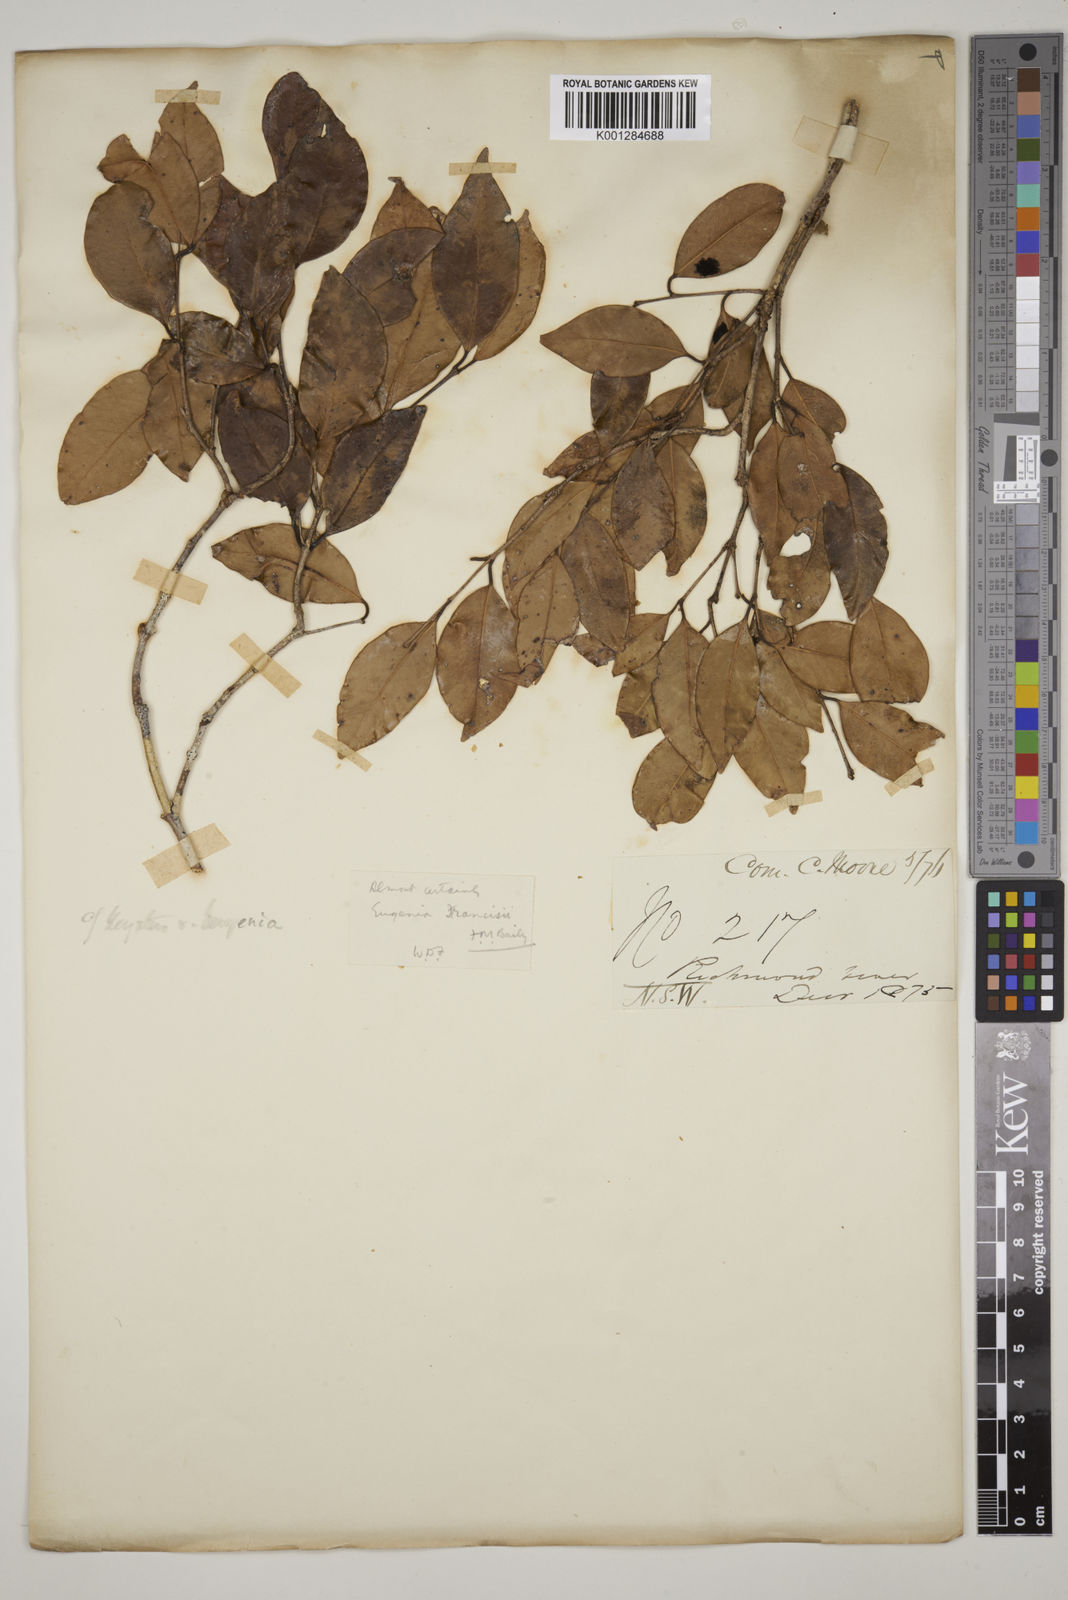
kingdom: Plantae
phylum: Tracheophyta
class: Magnoliopsida
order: Myrtales
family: Myrtaceae
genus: Syzygium
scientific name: Syzygium francisii
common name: Giant water-gum
